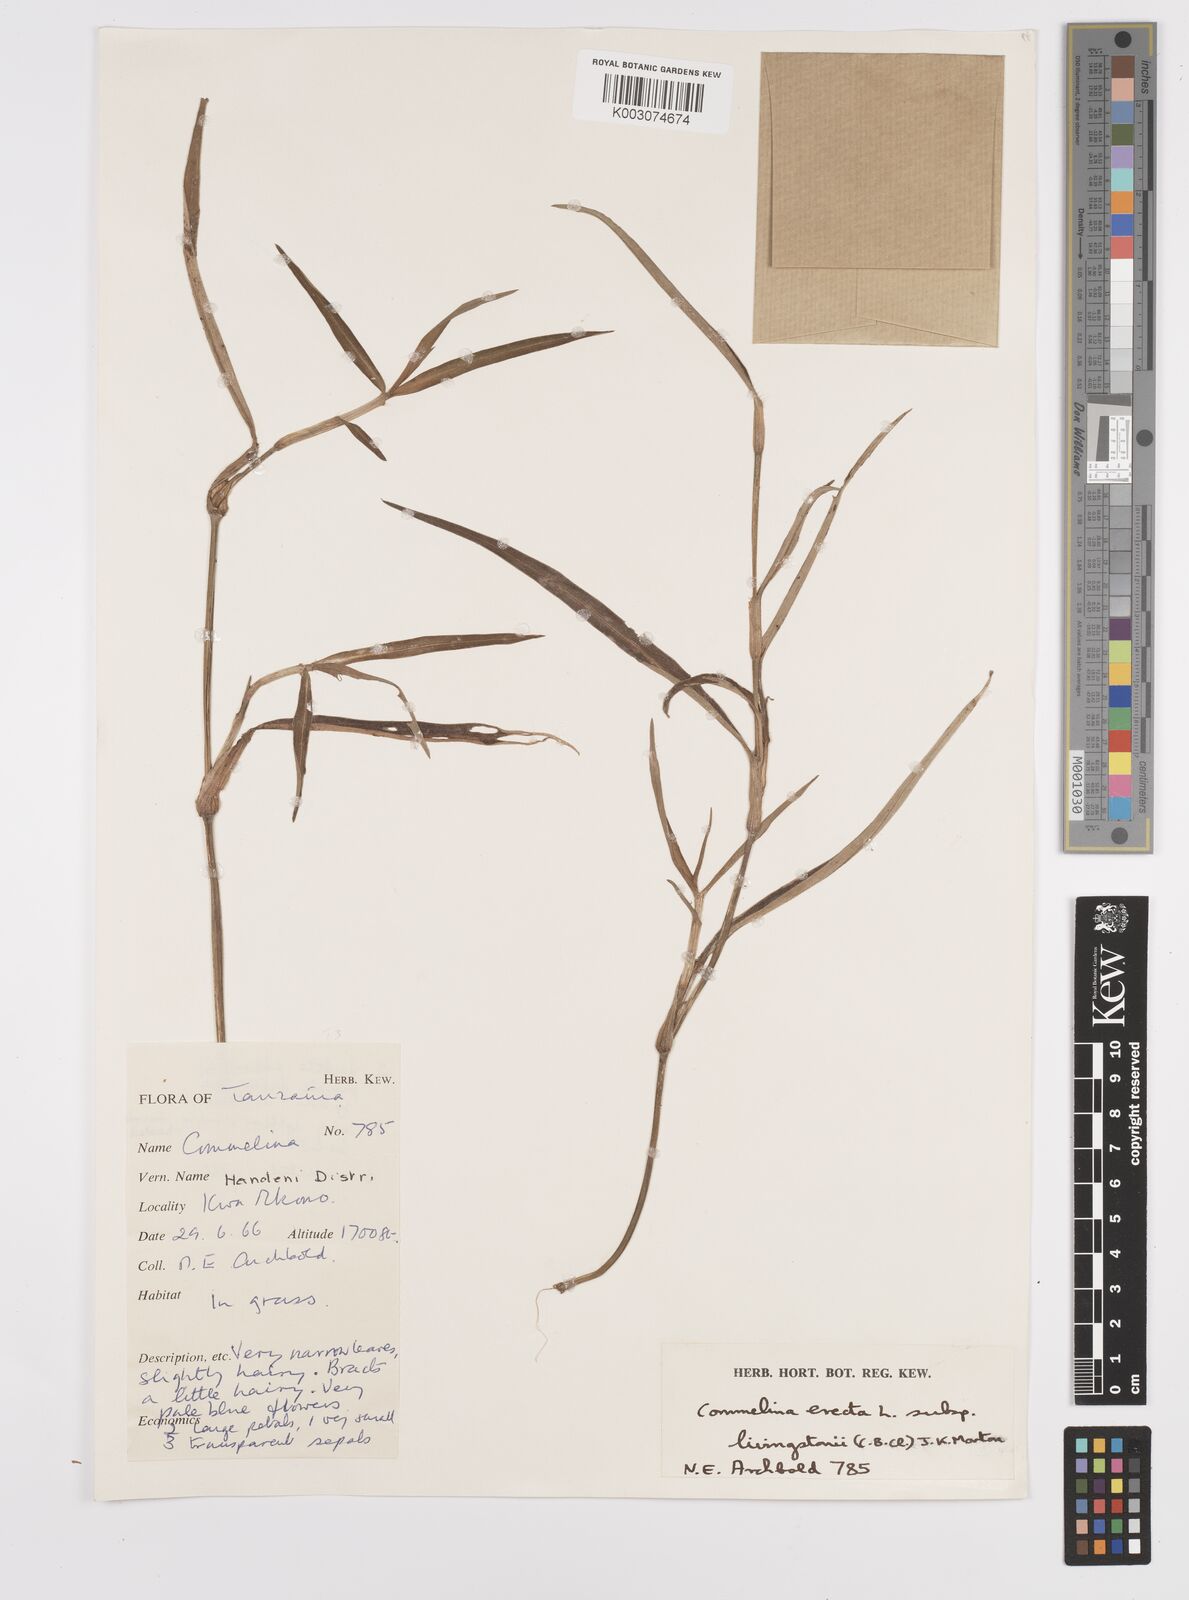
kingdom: Plantae
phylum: Tracheophyta
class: Liliopsida
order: Commelinales
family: Commelinaceae
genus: Commelina
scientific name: Commelina erecta
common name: Blousel blommetjie
